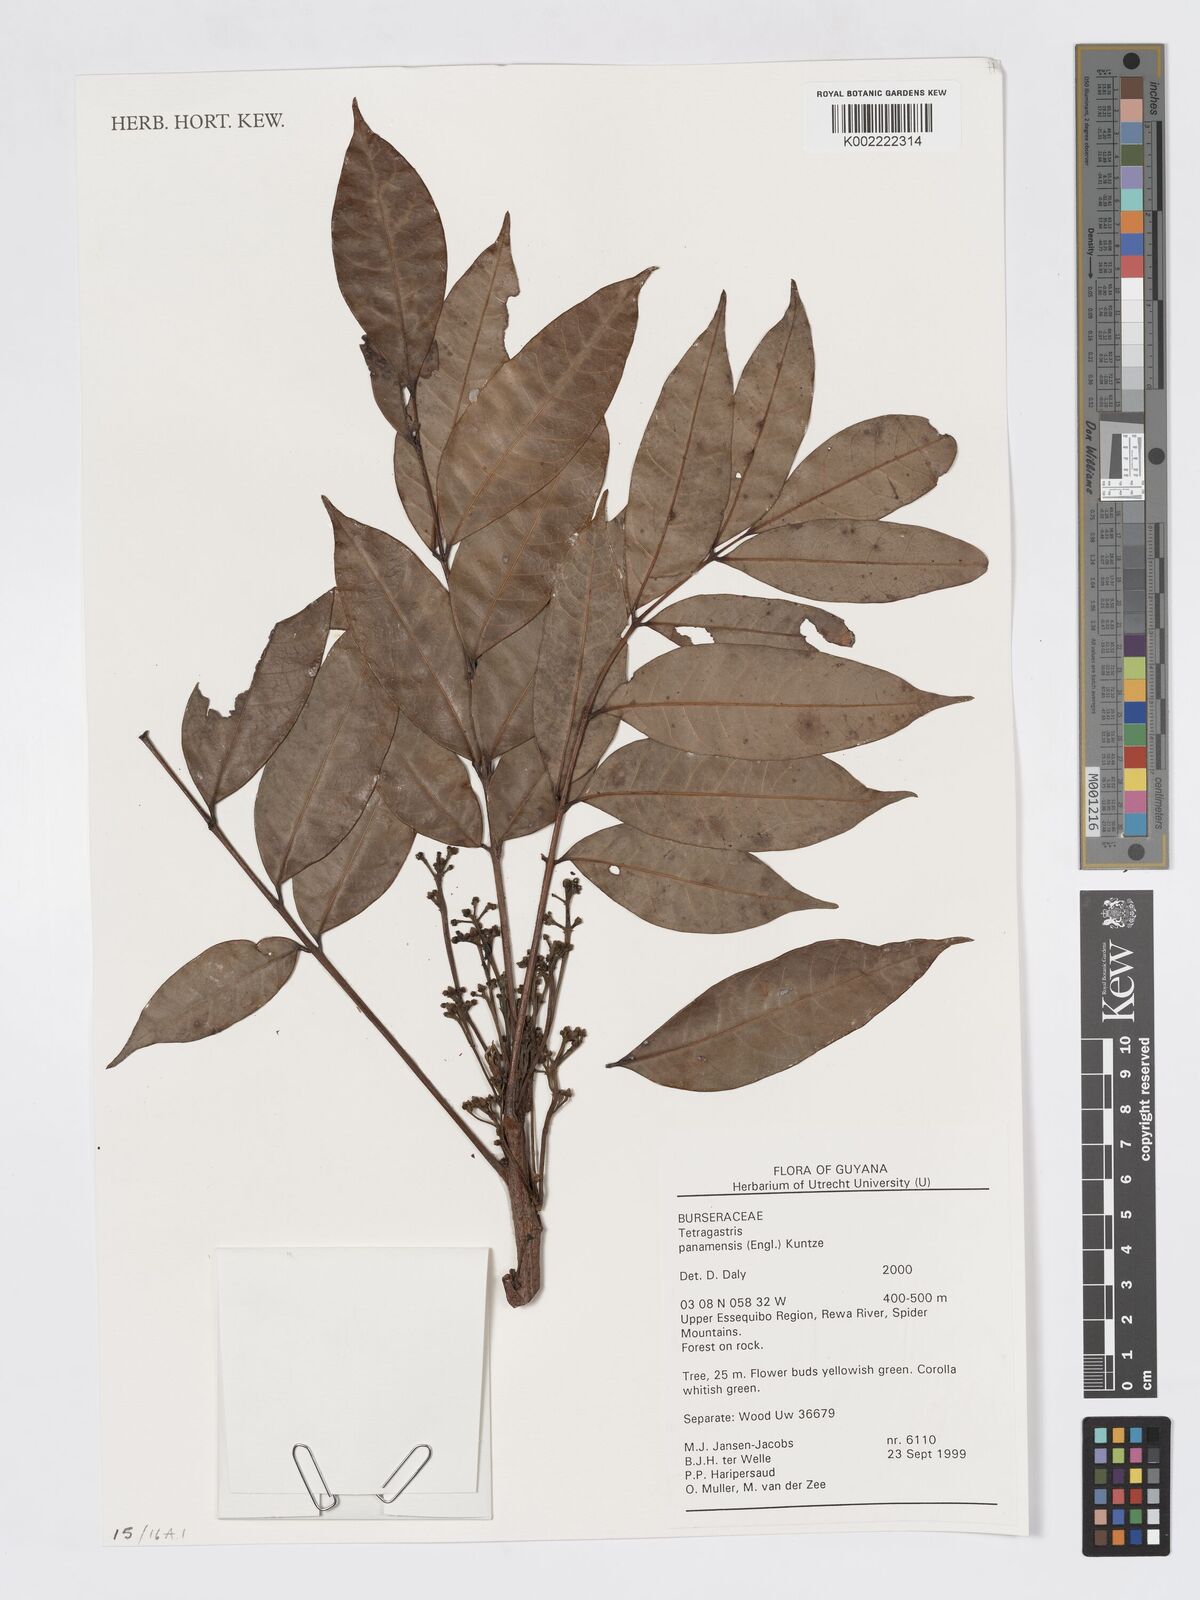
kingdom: Plantae
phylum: Tracheophyta
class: Magnoliopsida
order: Sapindales
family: Burseraceae
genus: Tetragastris
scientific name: Tetragastris panamensis
